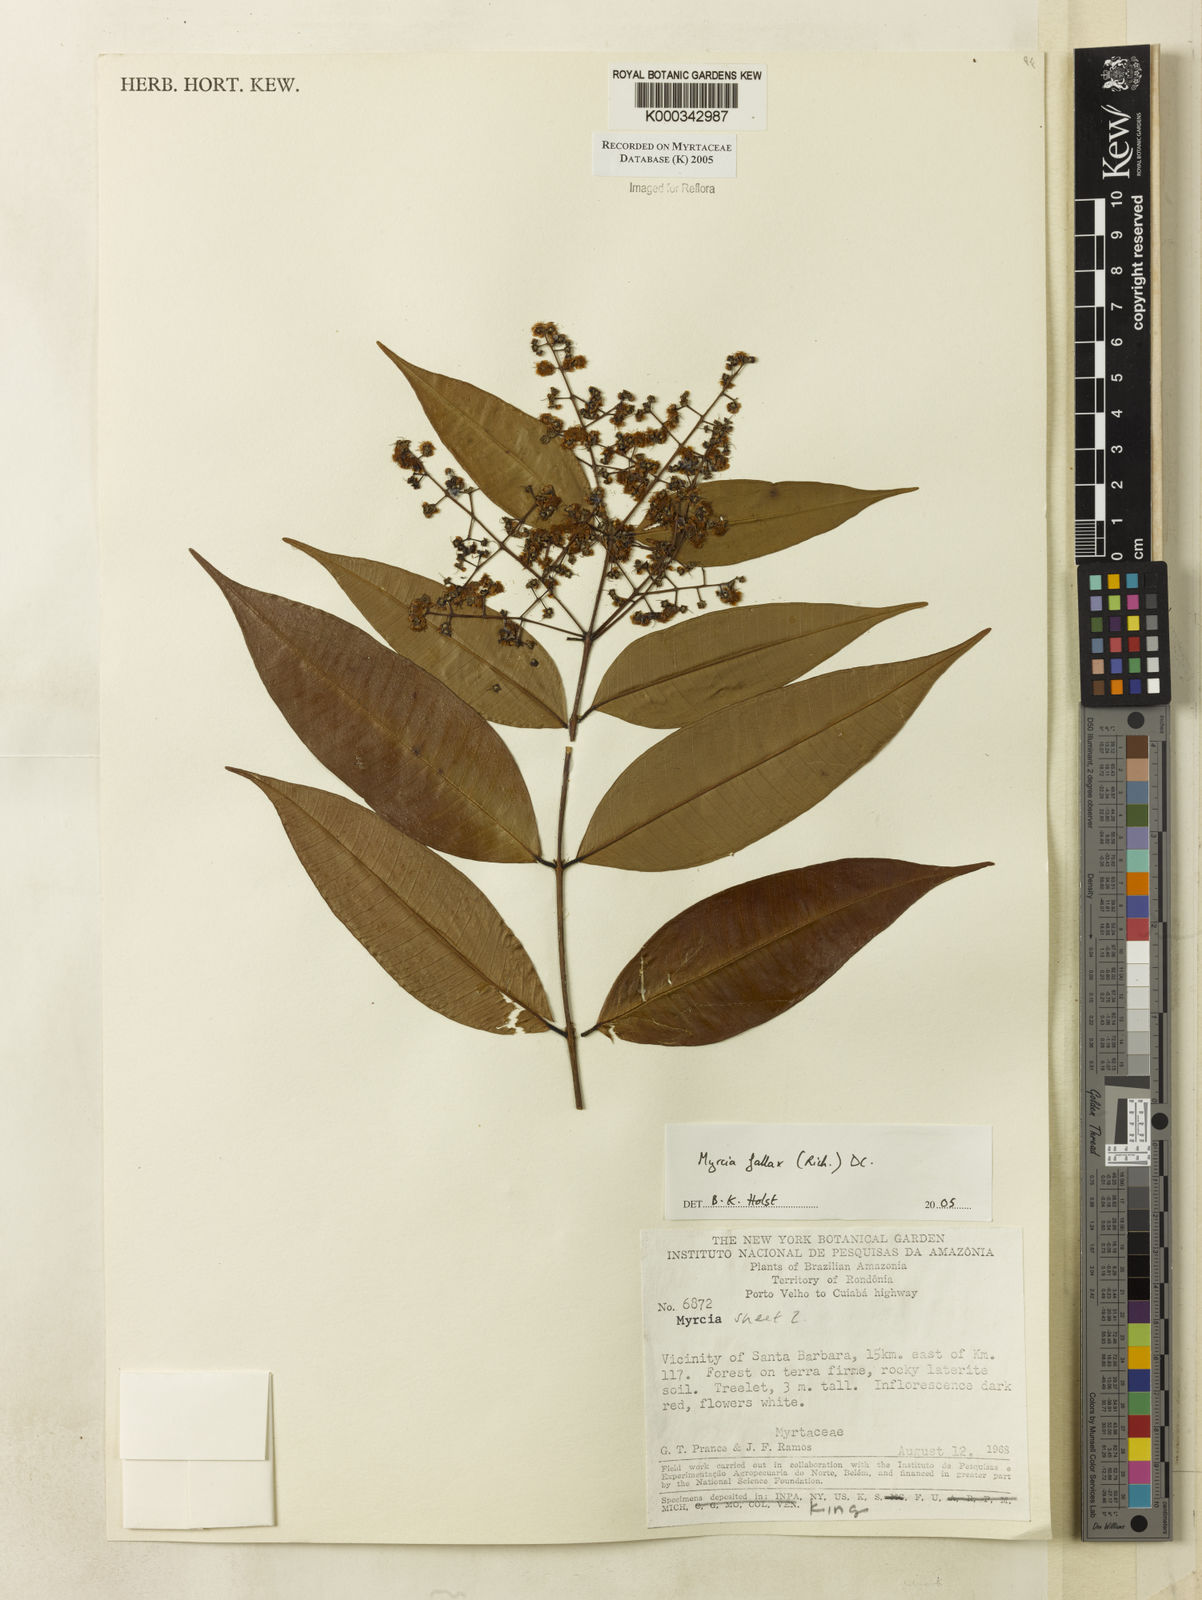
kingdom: Plantae
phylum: Tracheophyta
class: Magnoliopsida
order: Myrtales
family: Myrtaceae
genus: Myrcia
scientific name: Myrcia splendens
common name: Surinam cherry
